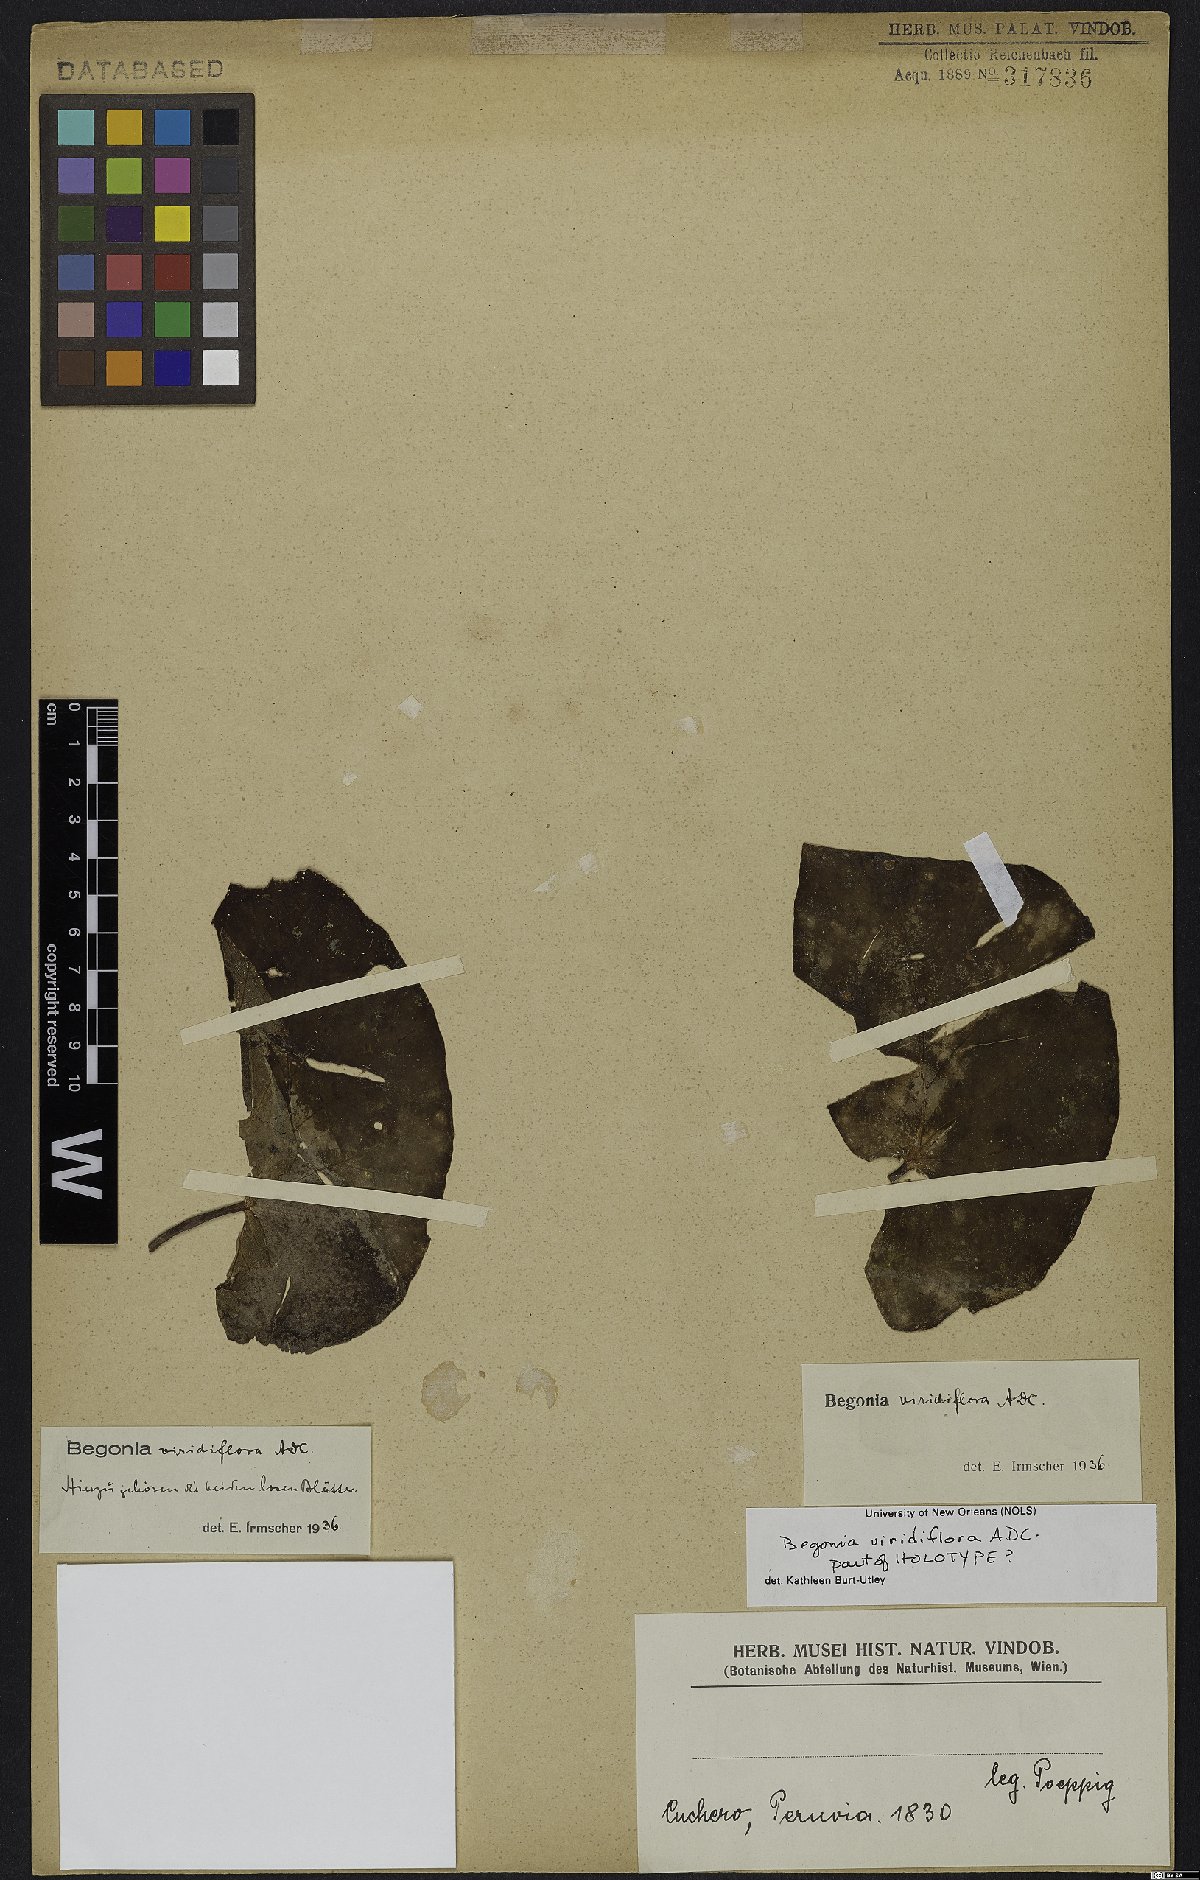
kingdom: Plantae
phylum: Tracheophyta
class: Magnoliopsida
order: Cucurbitales
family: Begoniaceae
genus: Begonia
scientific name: Begonia viridiflora
